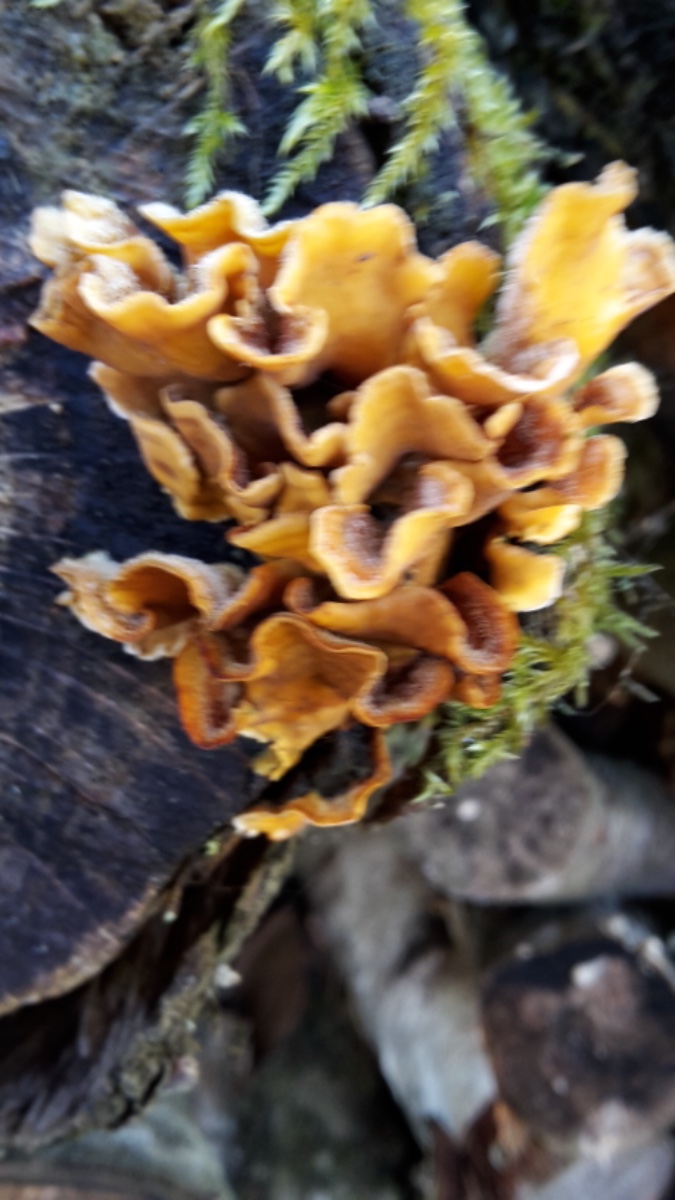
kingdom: Fungi
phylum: Basidiomycota
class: Agaricomycetes
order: Russulales
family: Stereaceae
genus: Stereum
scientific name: Stereum hirsutum
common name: håret lædersvamp
